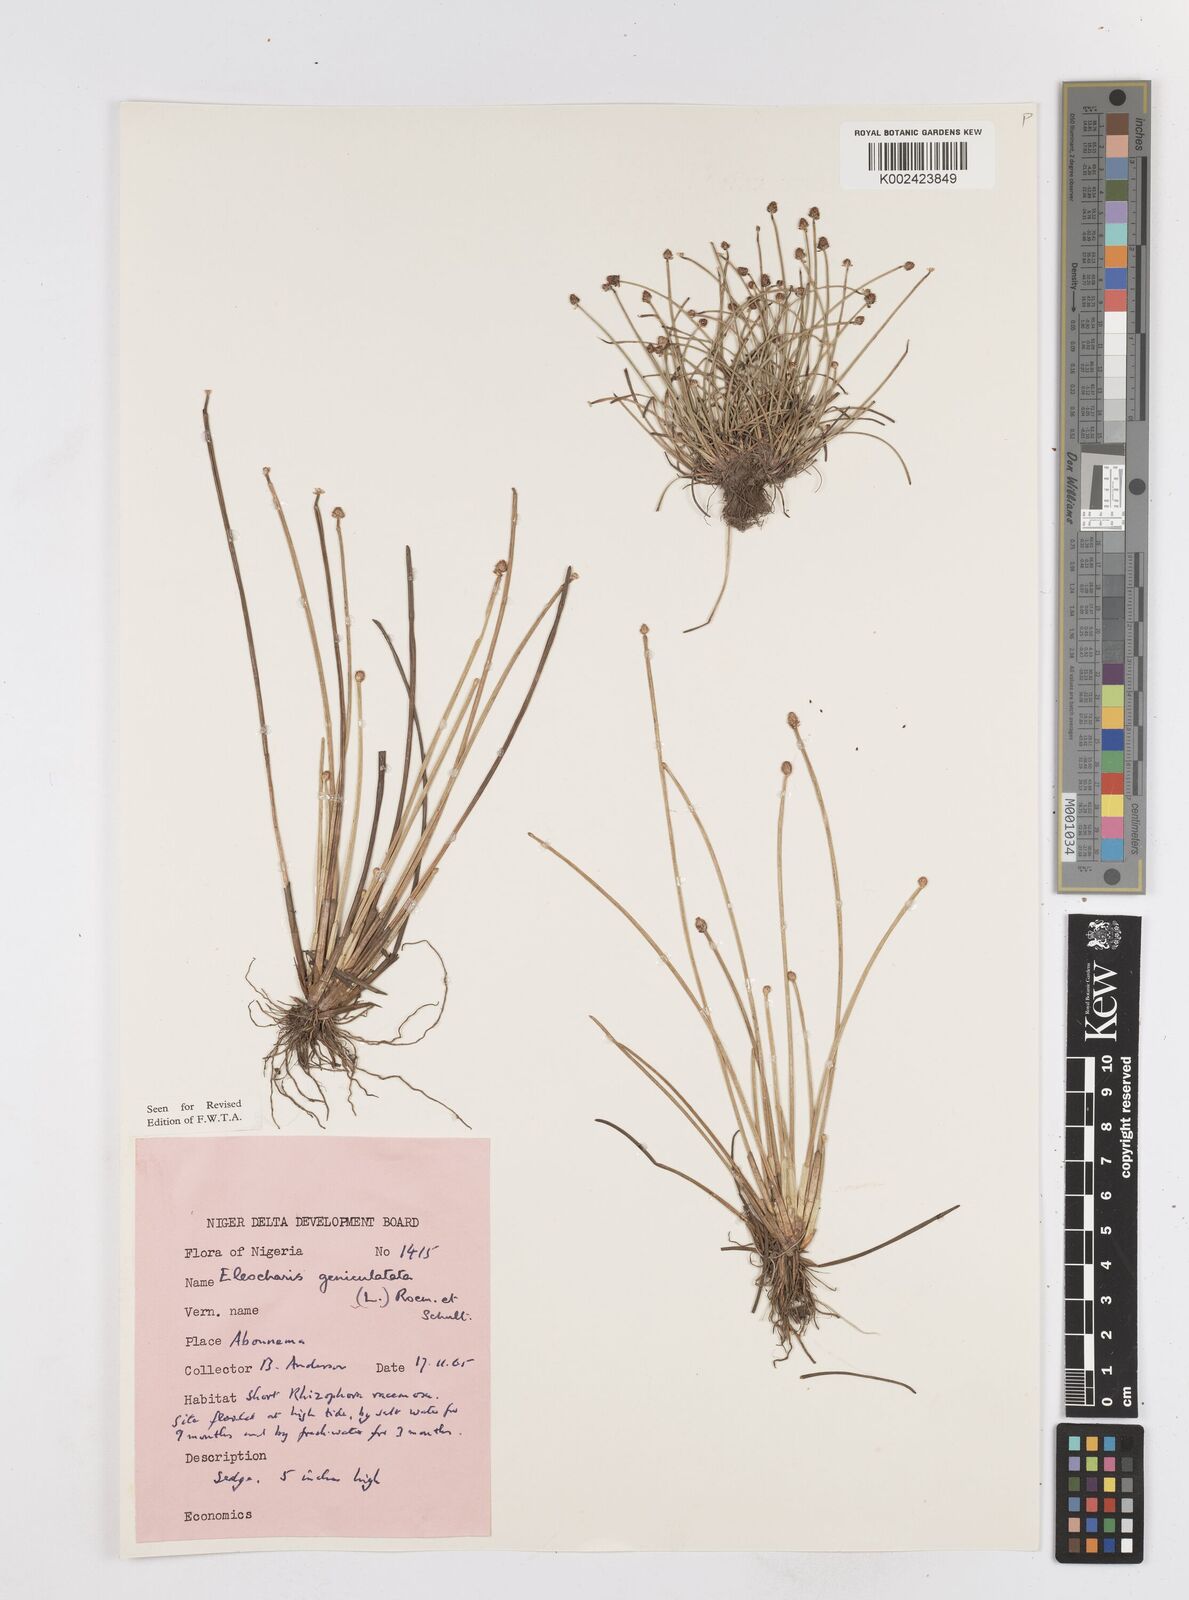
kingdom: Plantae
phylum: Tracheophyta
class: Liliopsida
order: Poales
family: Cyperaceae
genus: Eleocharis
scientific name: Eleocharis geniculata
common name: Canada spikesedge
